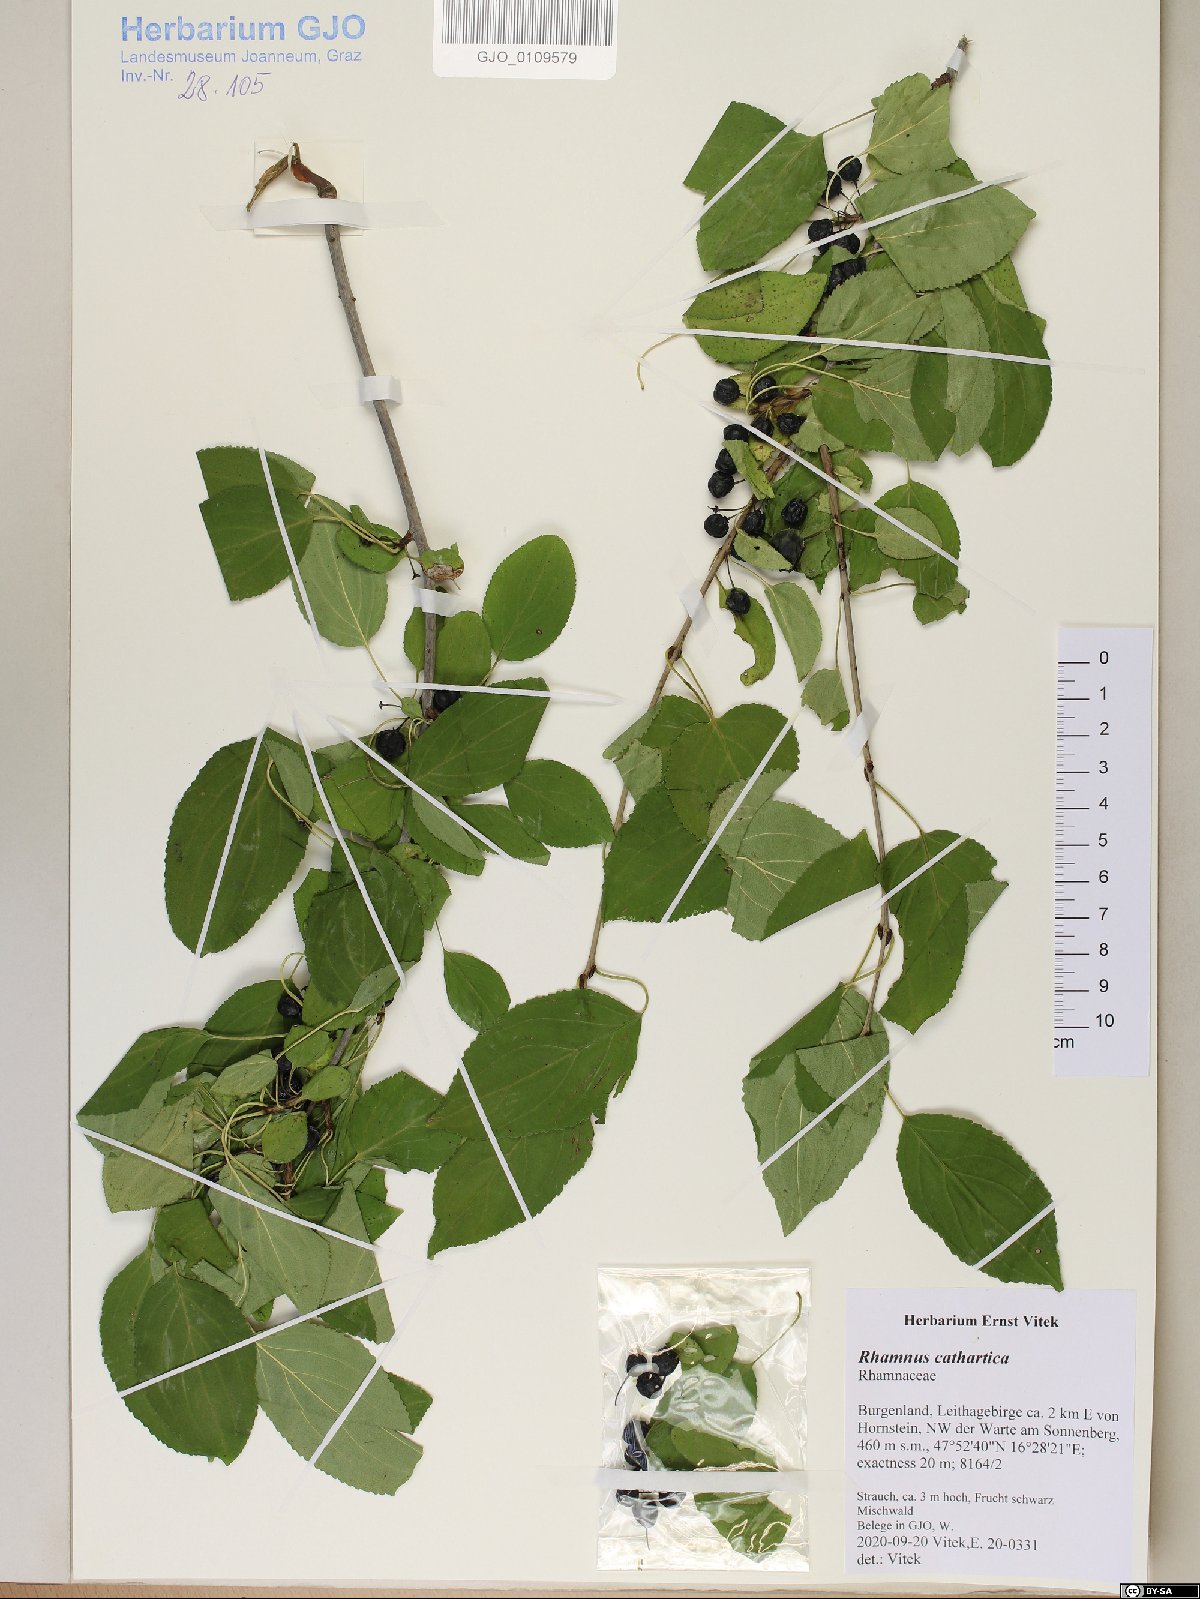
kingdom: Plantae
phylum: Tracheophyta
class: Magnoliopsida
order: Rosales
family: Rhamnaceae
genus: Rhamnus
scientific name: Rhamnus cathartica
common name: Common buckthorn
